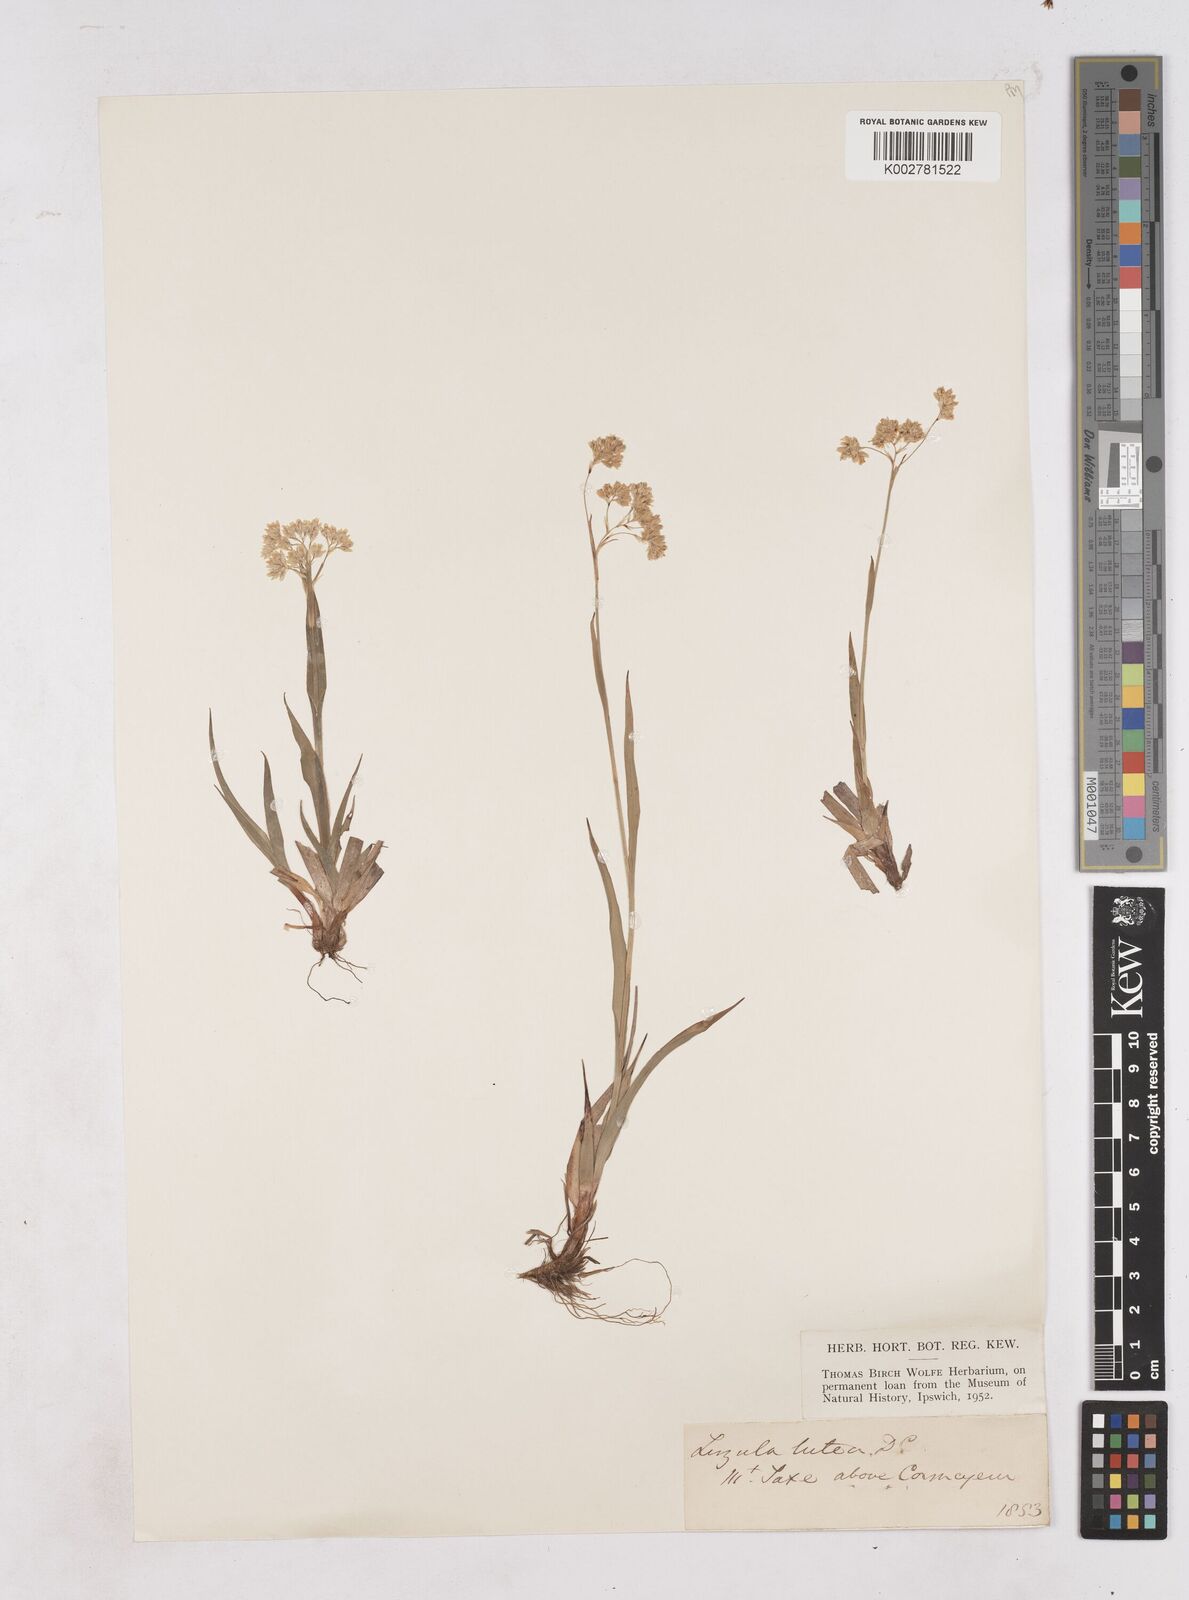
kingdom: Plantae
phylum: Tracheophyta
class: Liliopsida
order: Poales
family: Juncaceae
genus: Luzula
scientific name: Luzula lutea
